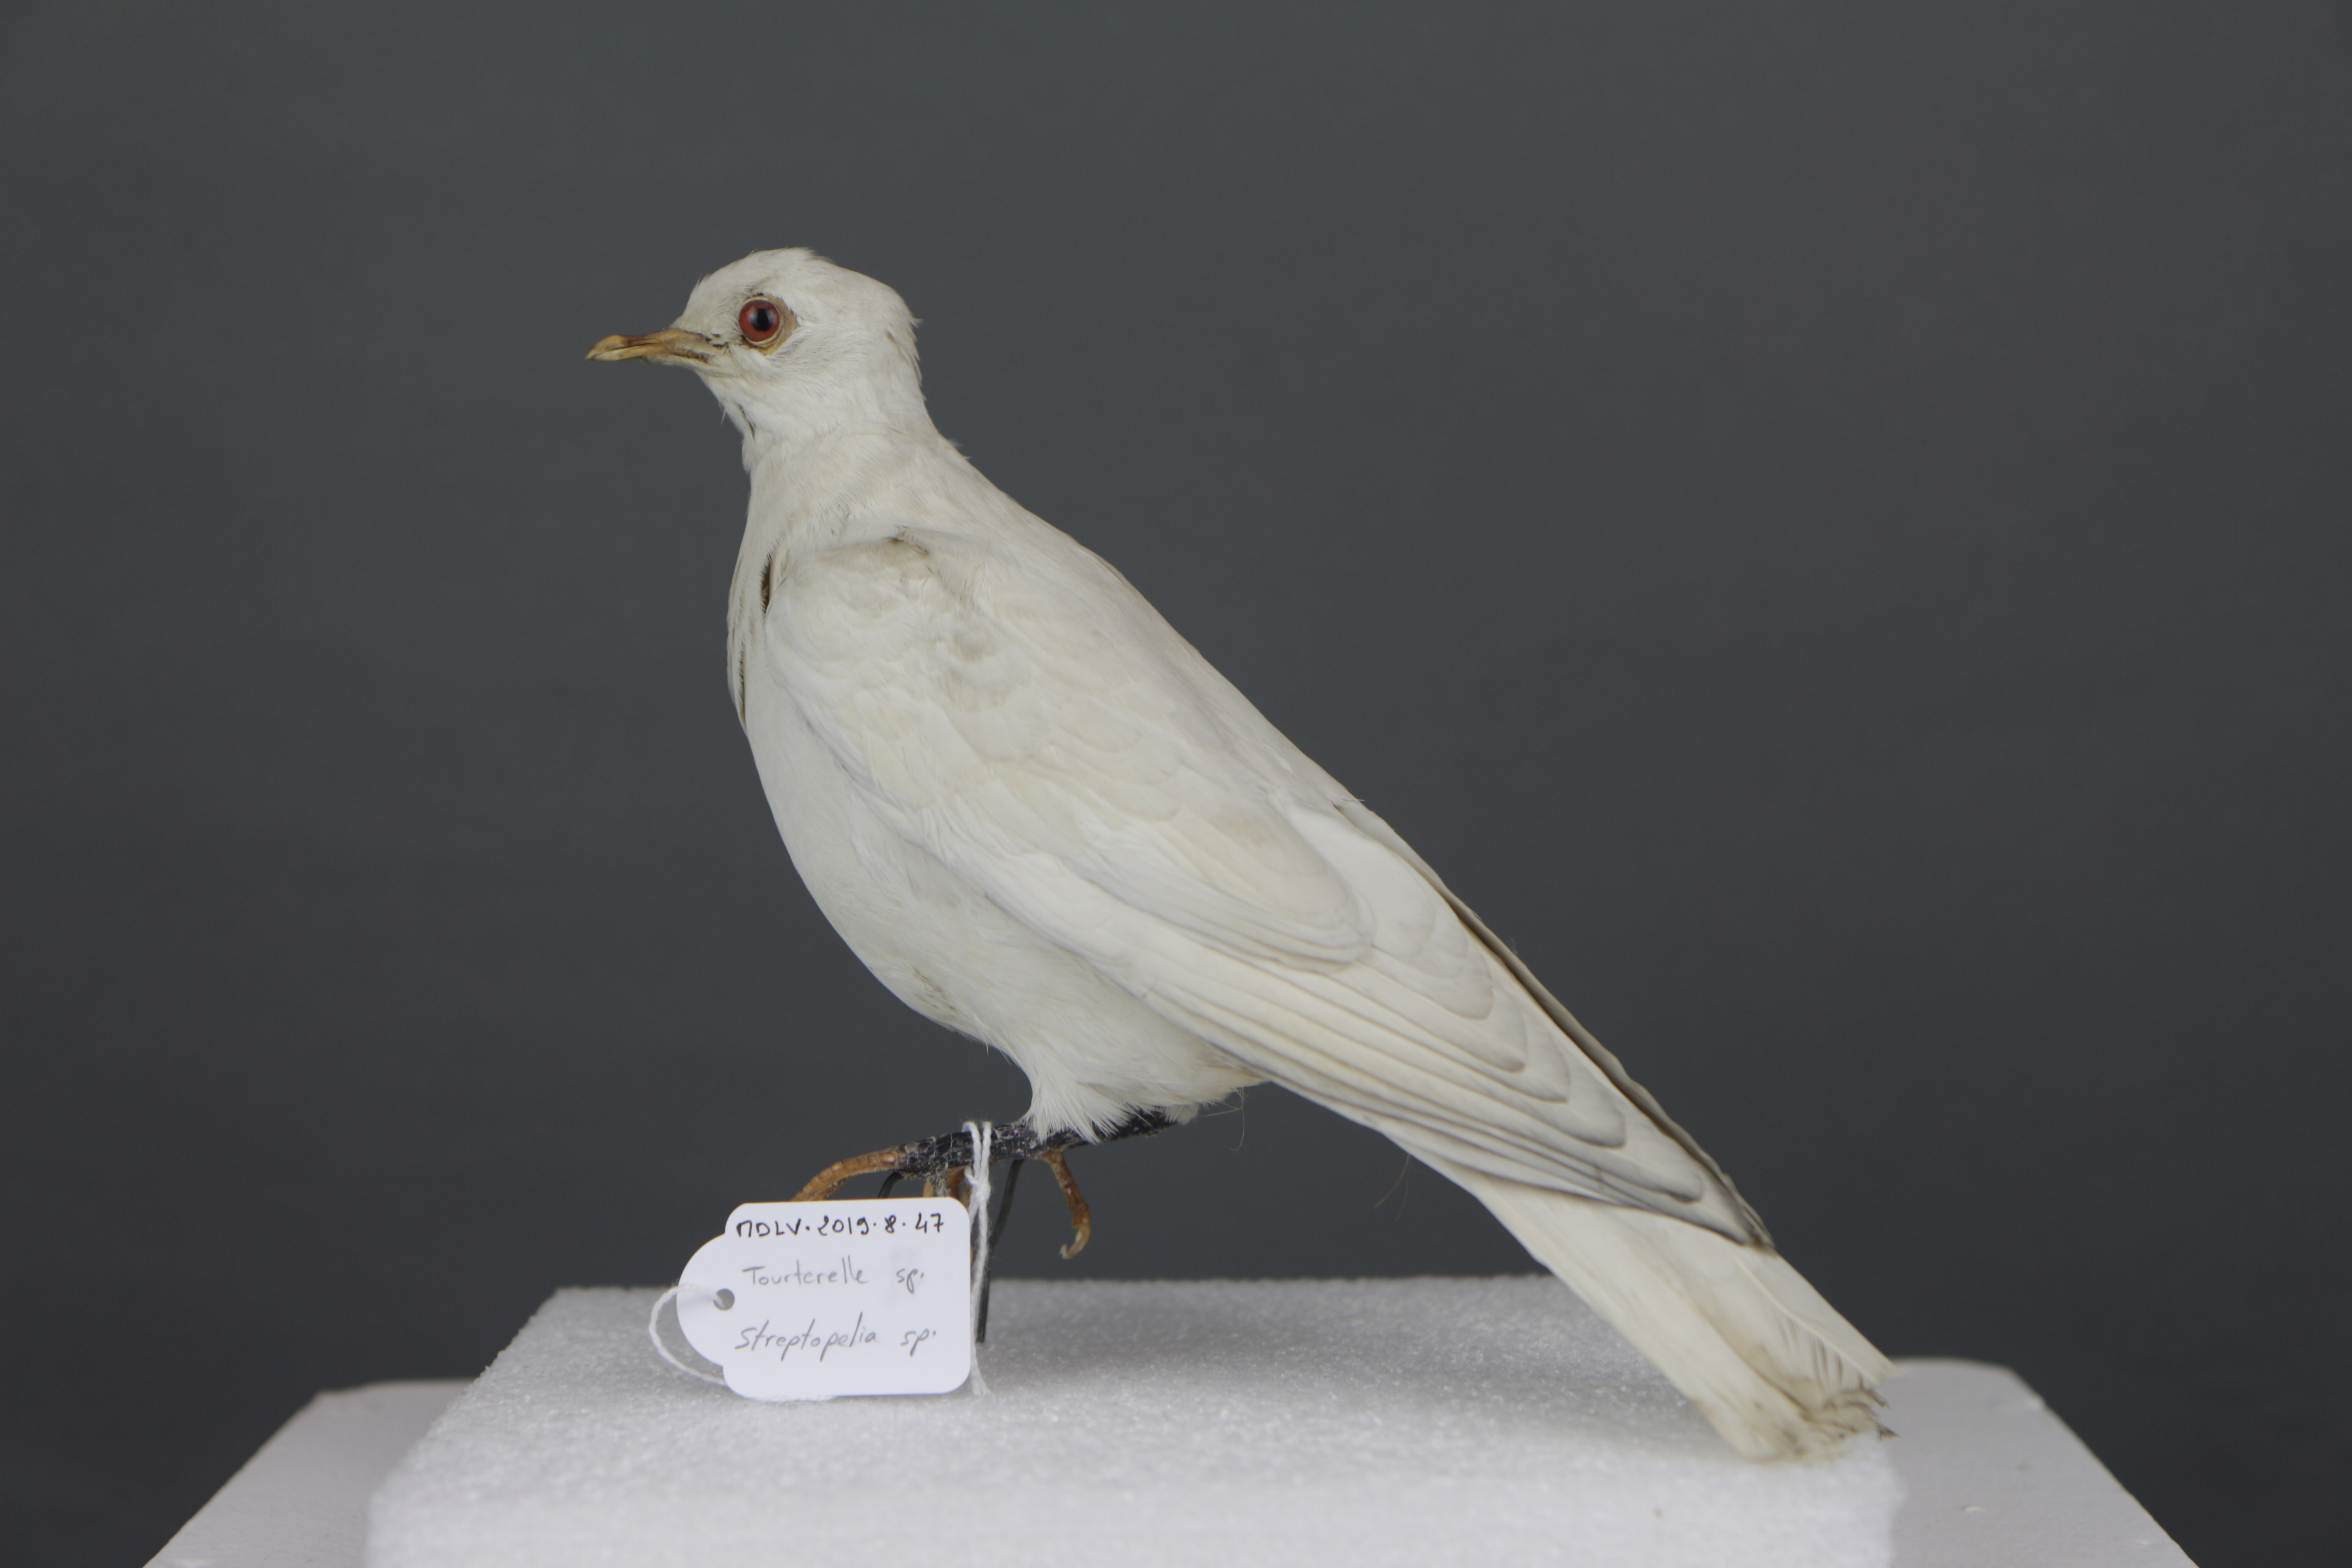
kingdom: Animalia
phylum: Chordata
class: Aves
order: Columbiformes
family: Columbidae
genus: Streptopelia
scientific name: Streptopelia
